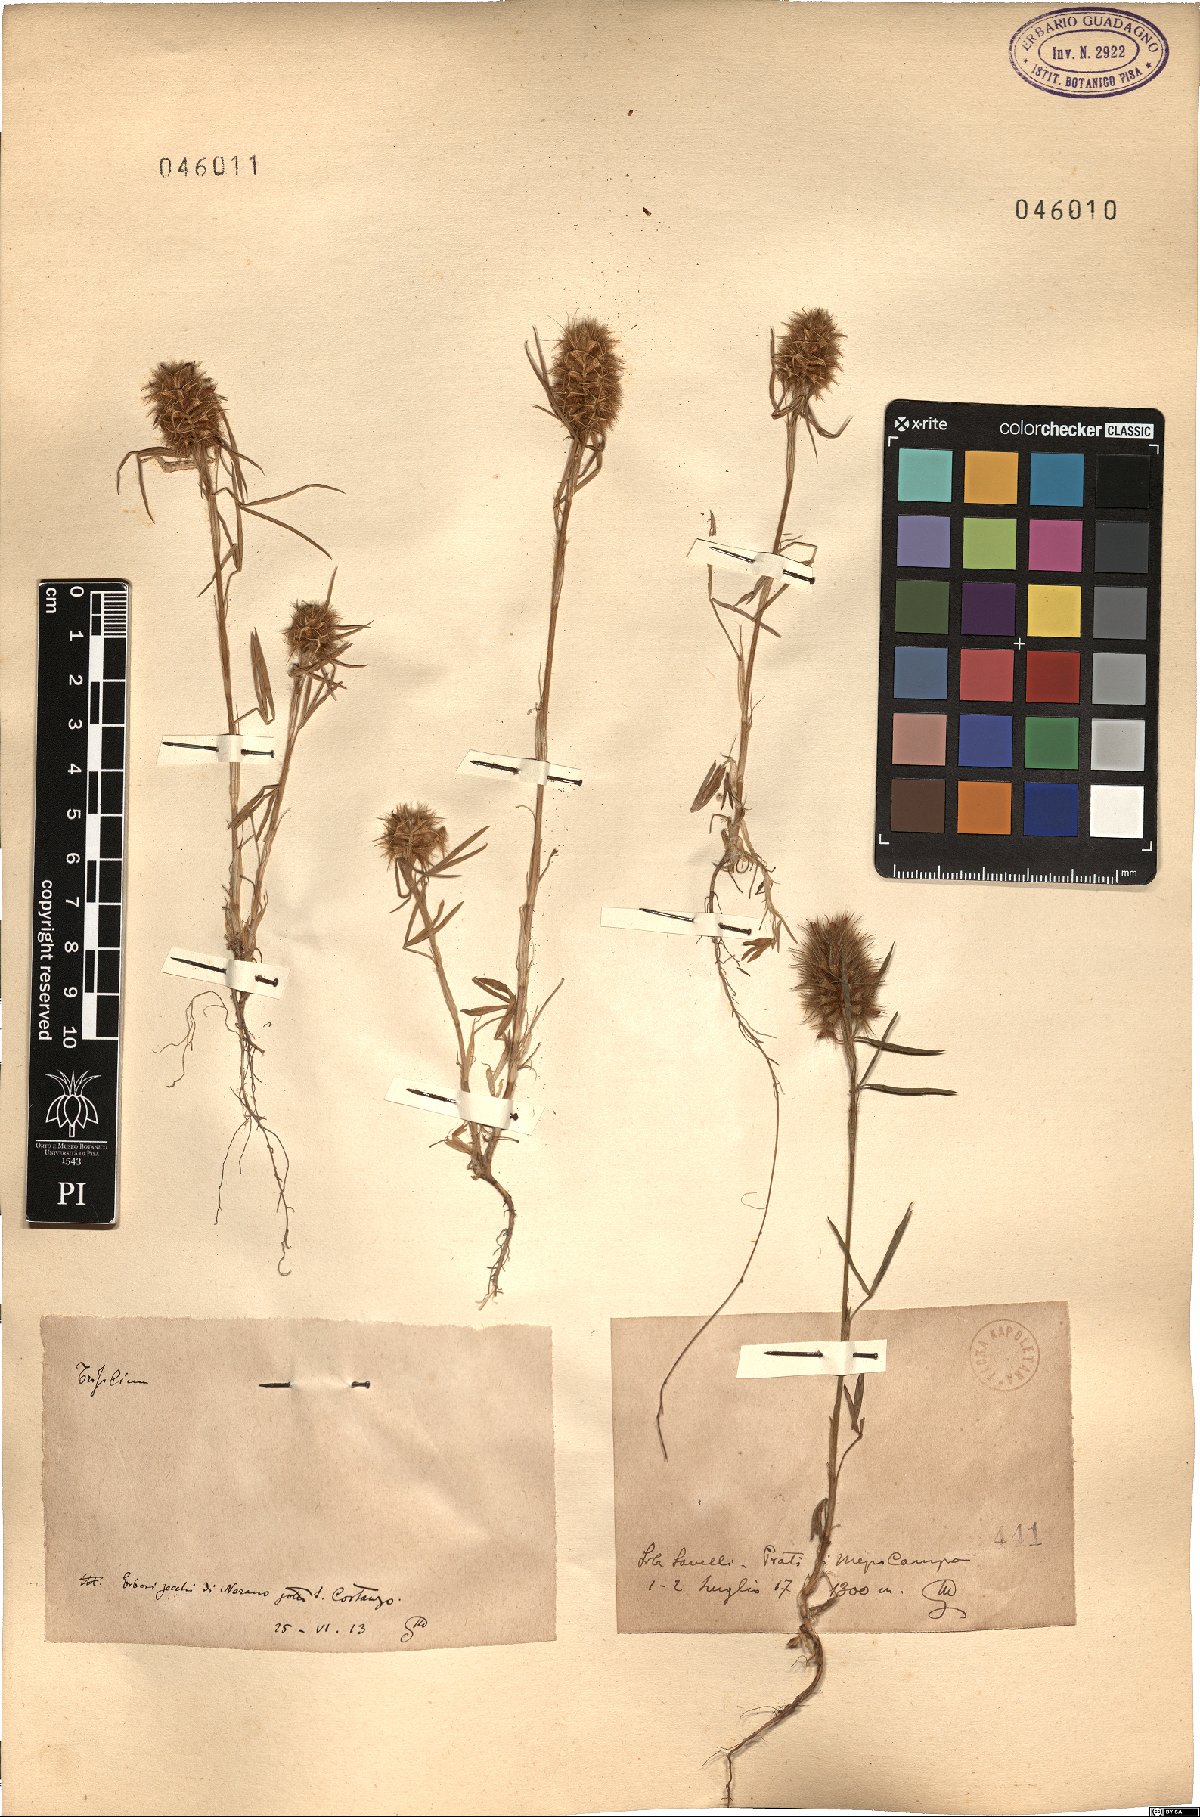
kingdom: Plantae
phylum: Tracheophyta
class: Magnoliopsida
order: Fabales
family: Fabaceae
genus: Trifolium
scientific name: Trifolium
